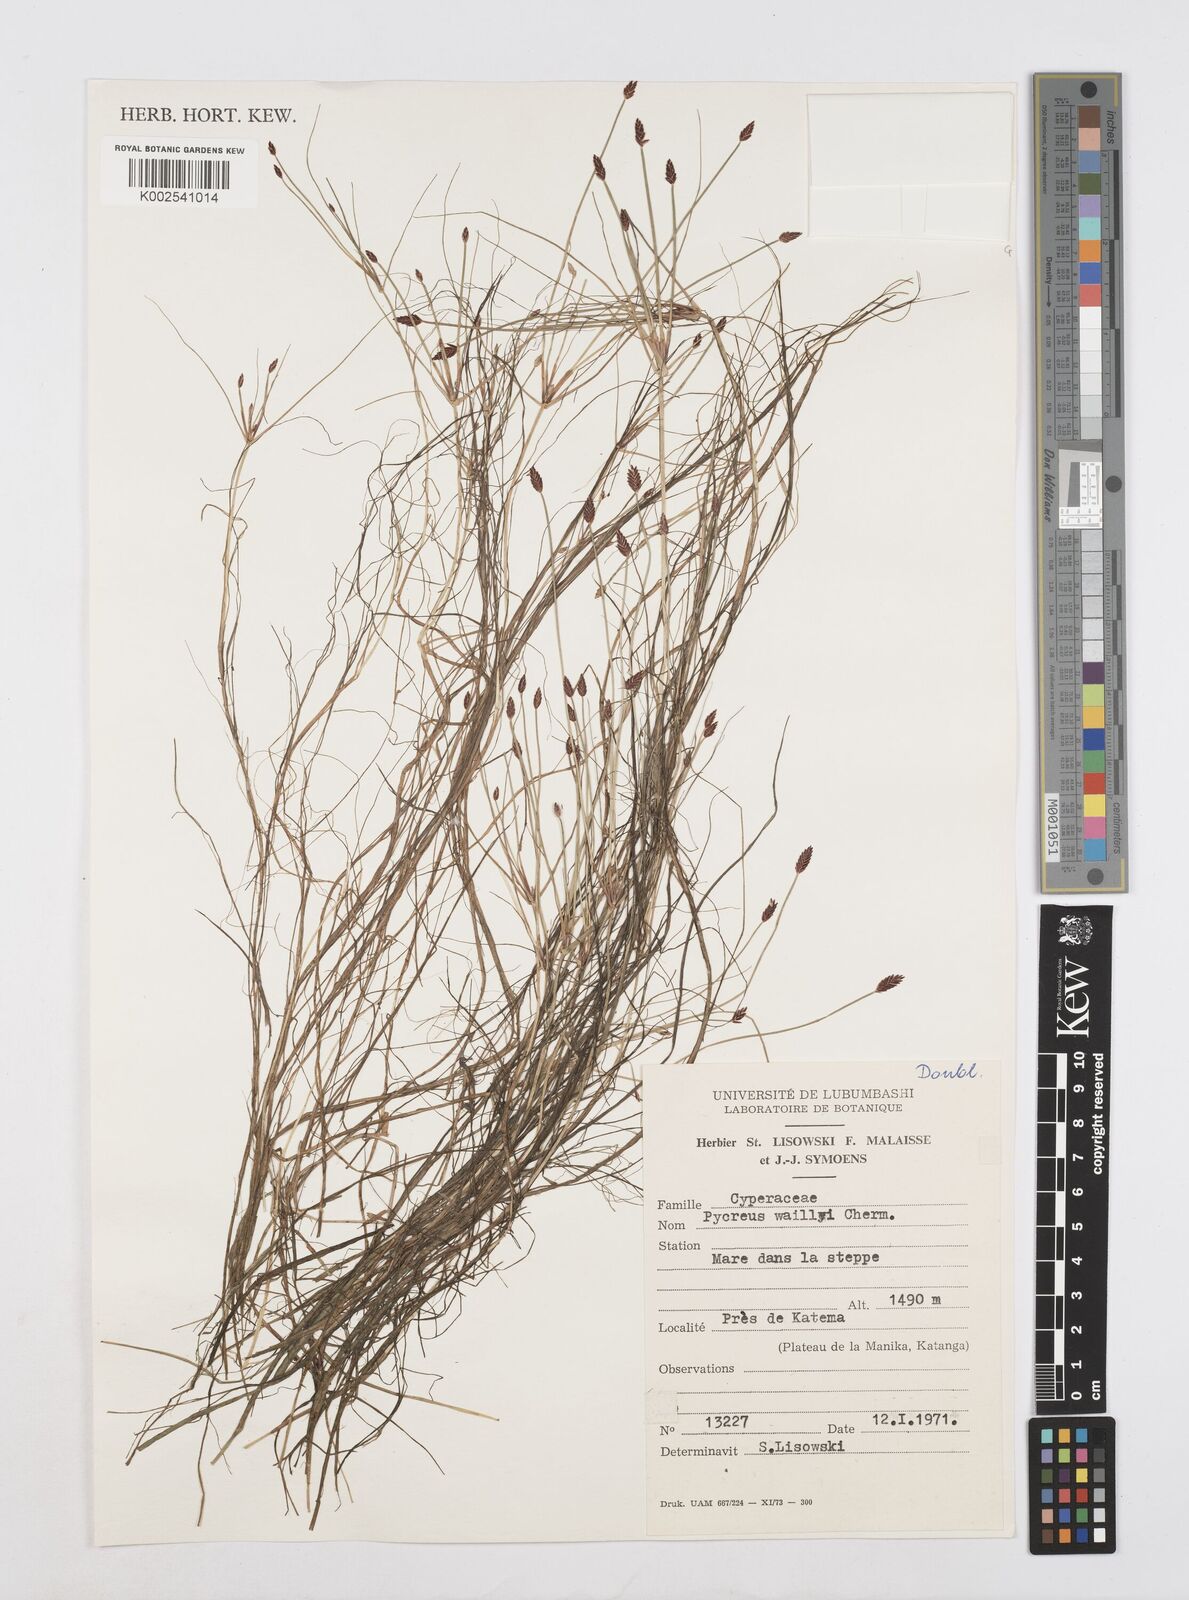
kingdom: Plantae
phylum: Tracheophyta
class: Liliopsida
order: Poales
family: Cyperaceae
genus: Cyperus
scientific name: Cyperus waillyi
